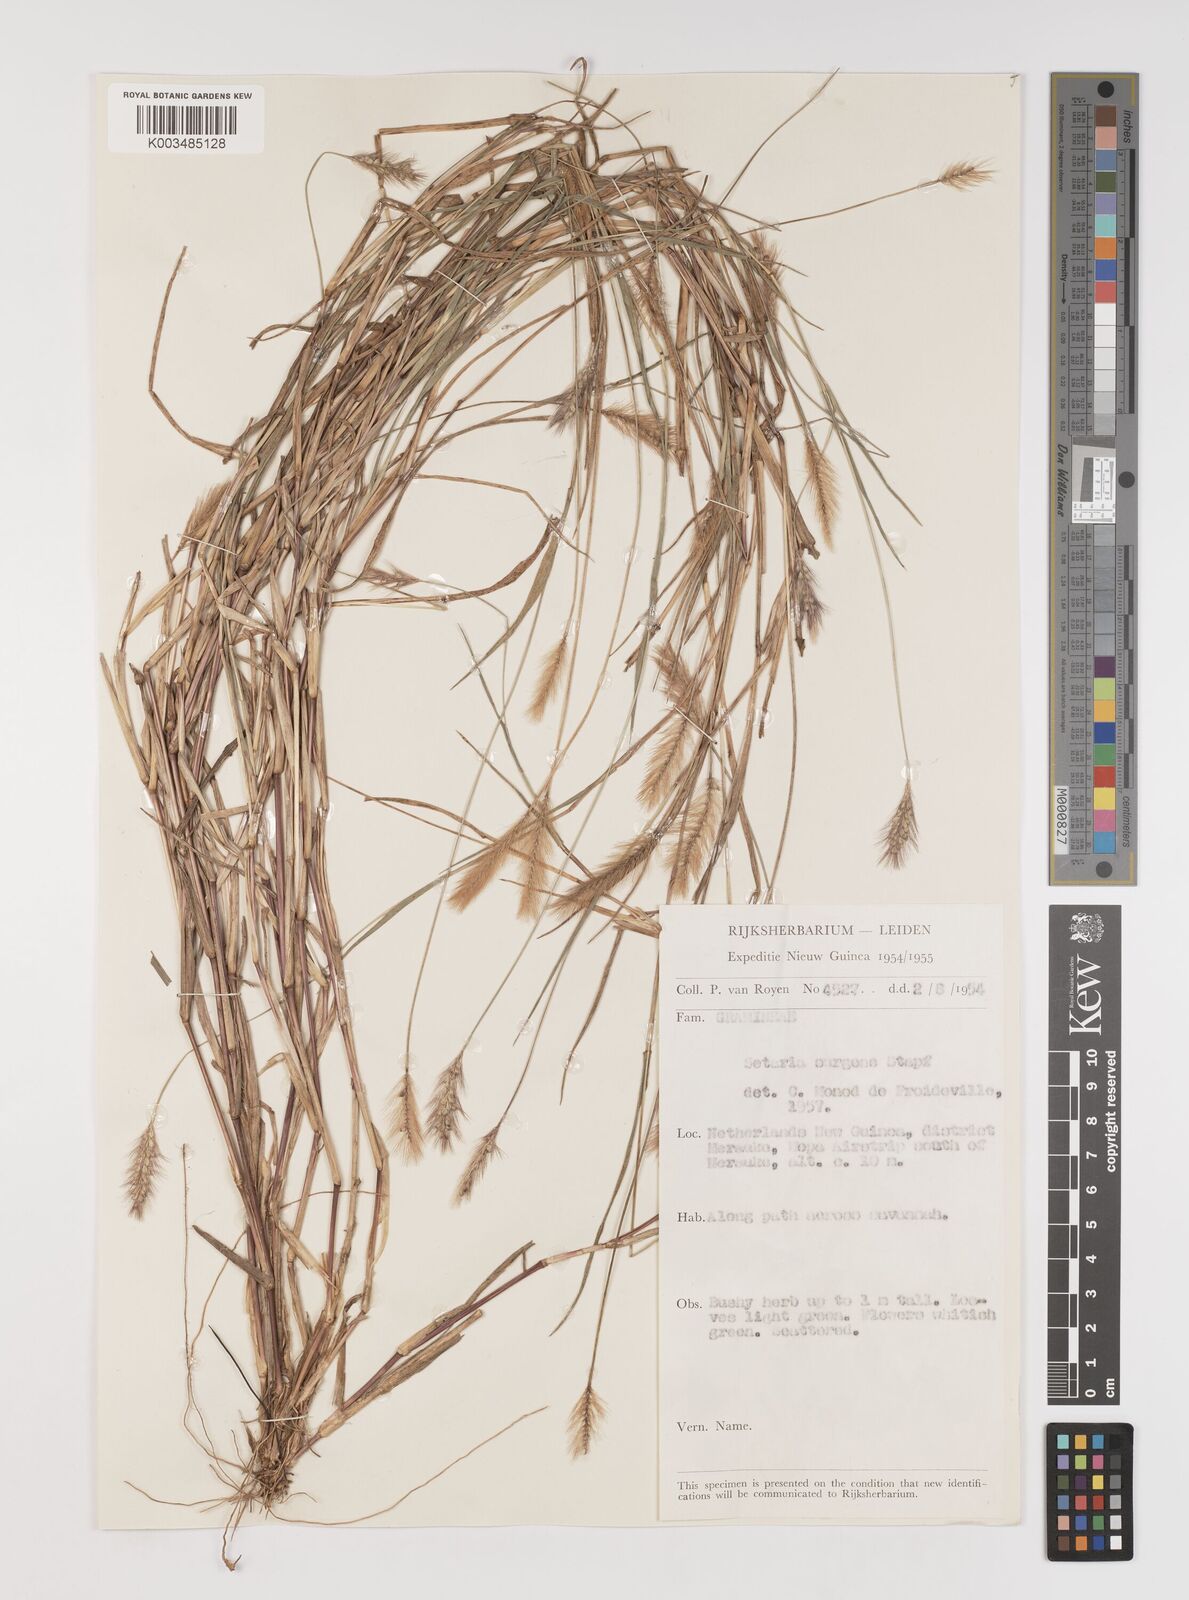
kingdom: Plantae
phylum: Tracheophyta
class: Liliopsida
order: Poales
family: Poaceae
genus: Setaria
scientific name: Setaria apiculata
